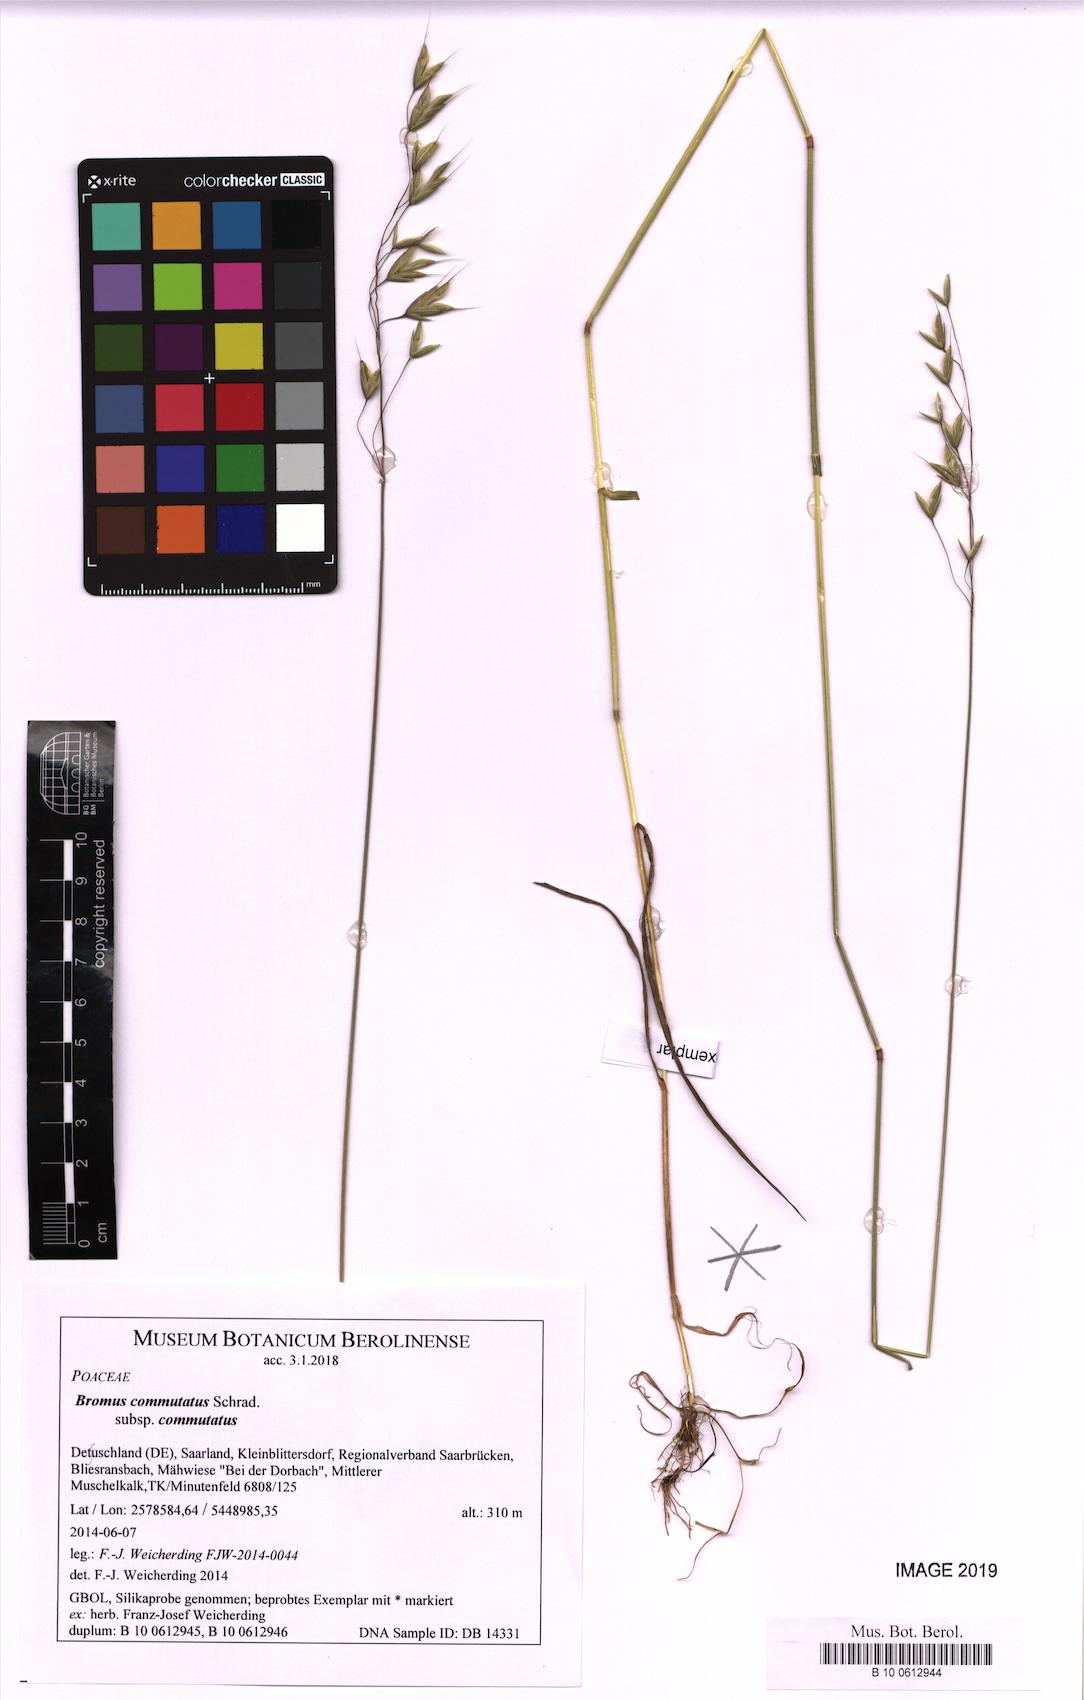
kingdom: Plantae
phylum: Tracheophyta
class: Liliopsida
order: Poales
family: Poaceae
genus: Bromus
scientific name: Bromus commutatus
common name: Meadow brome
